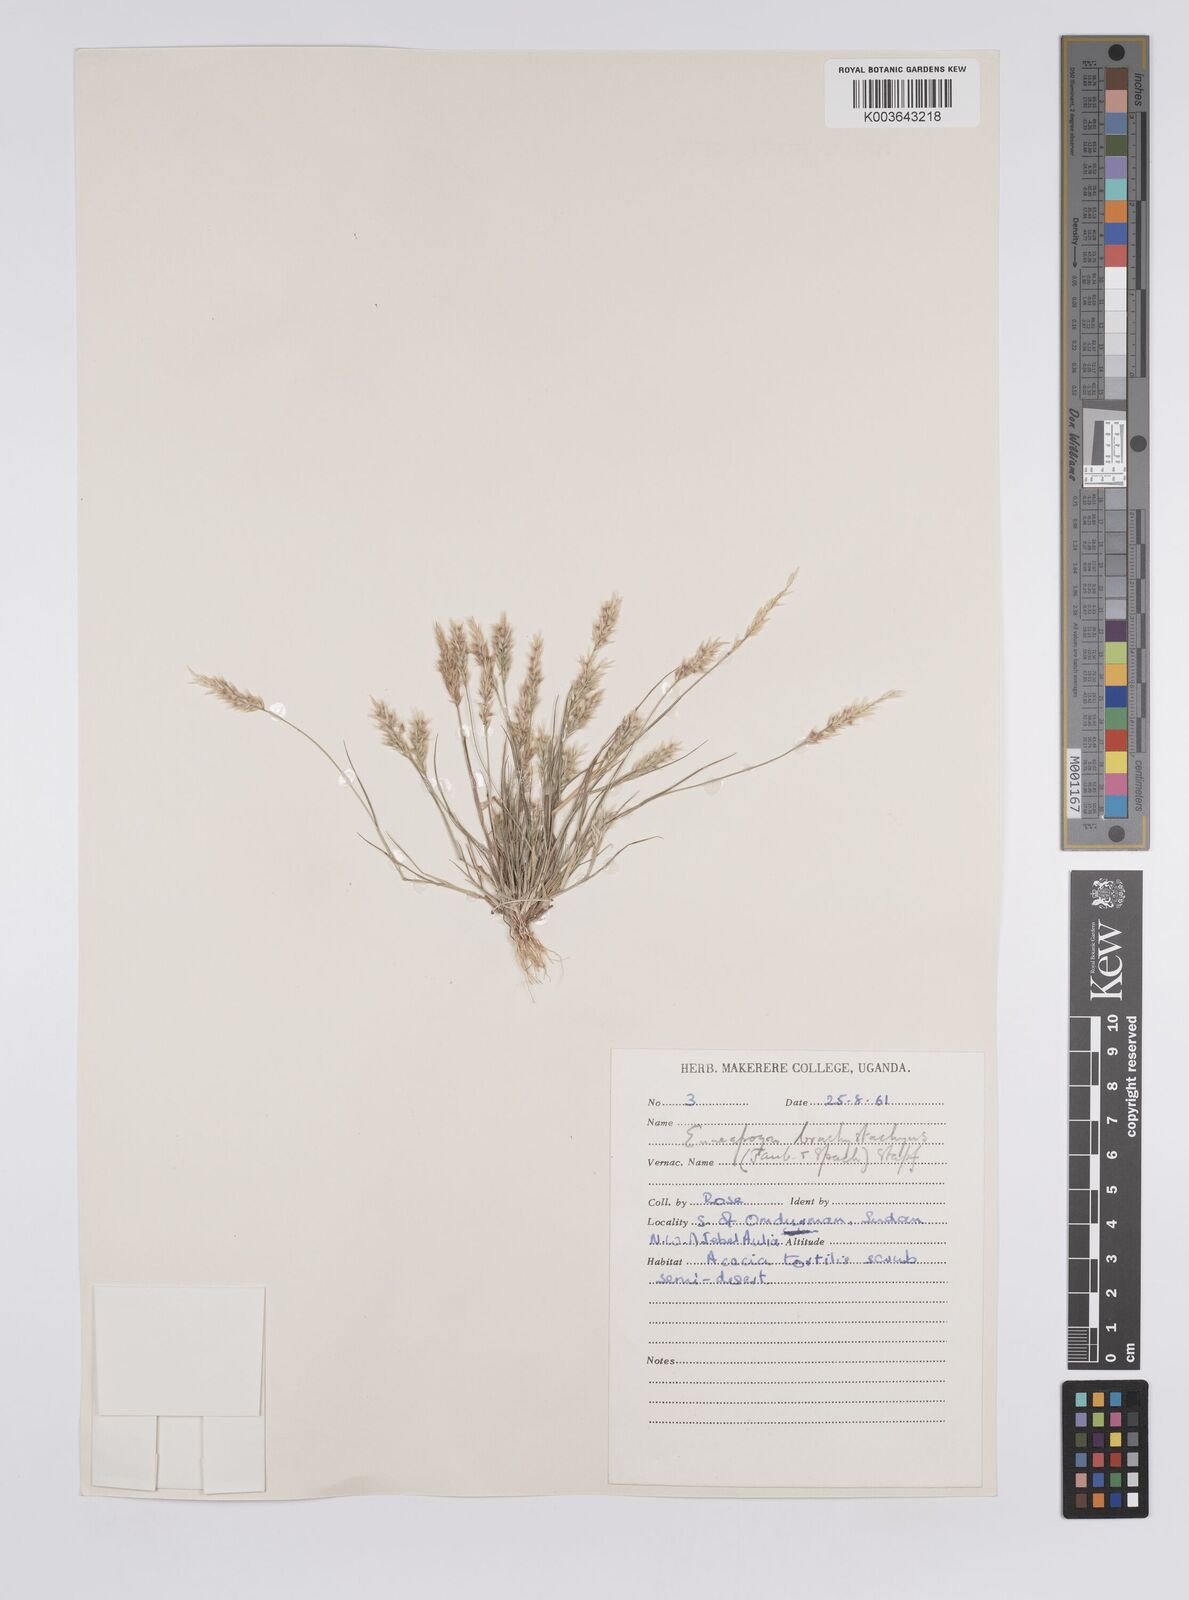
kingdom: Plantae
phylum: Tracheophyta
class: Liliopsida
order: Poales
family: Poaceae
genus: Enneapogon
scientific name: Enneapogon desvauxii
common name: Feather pappus grass
